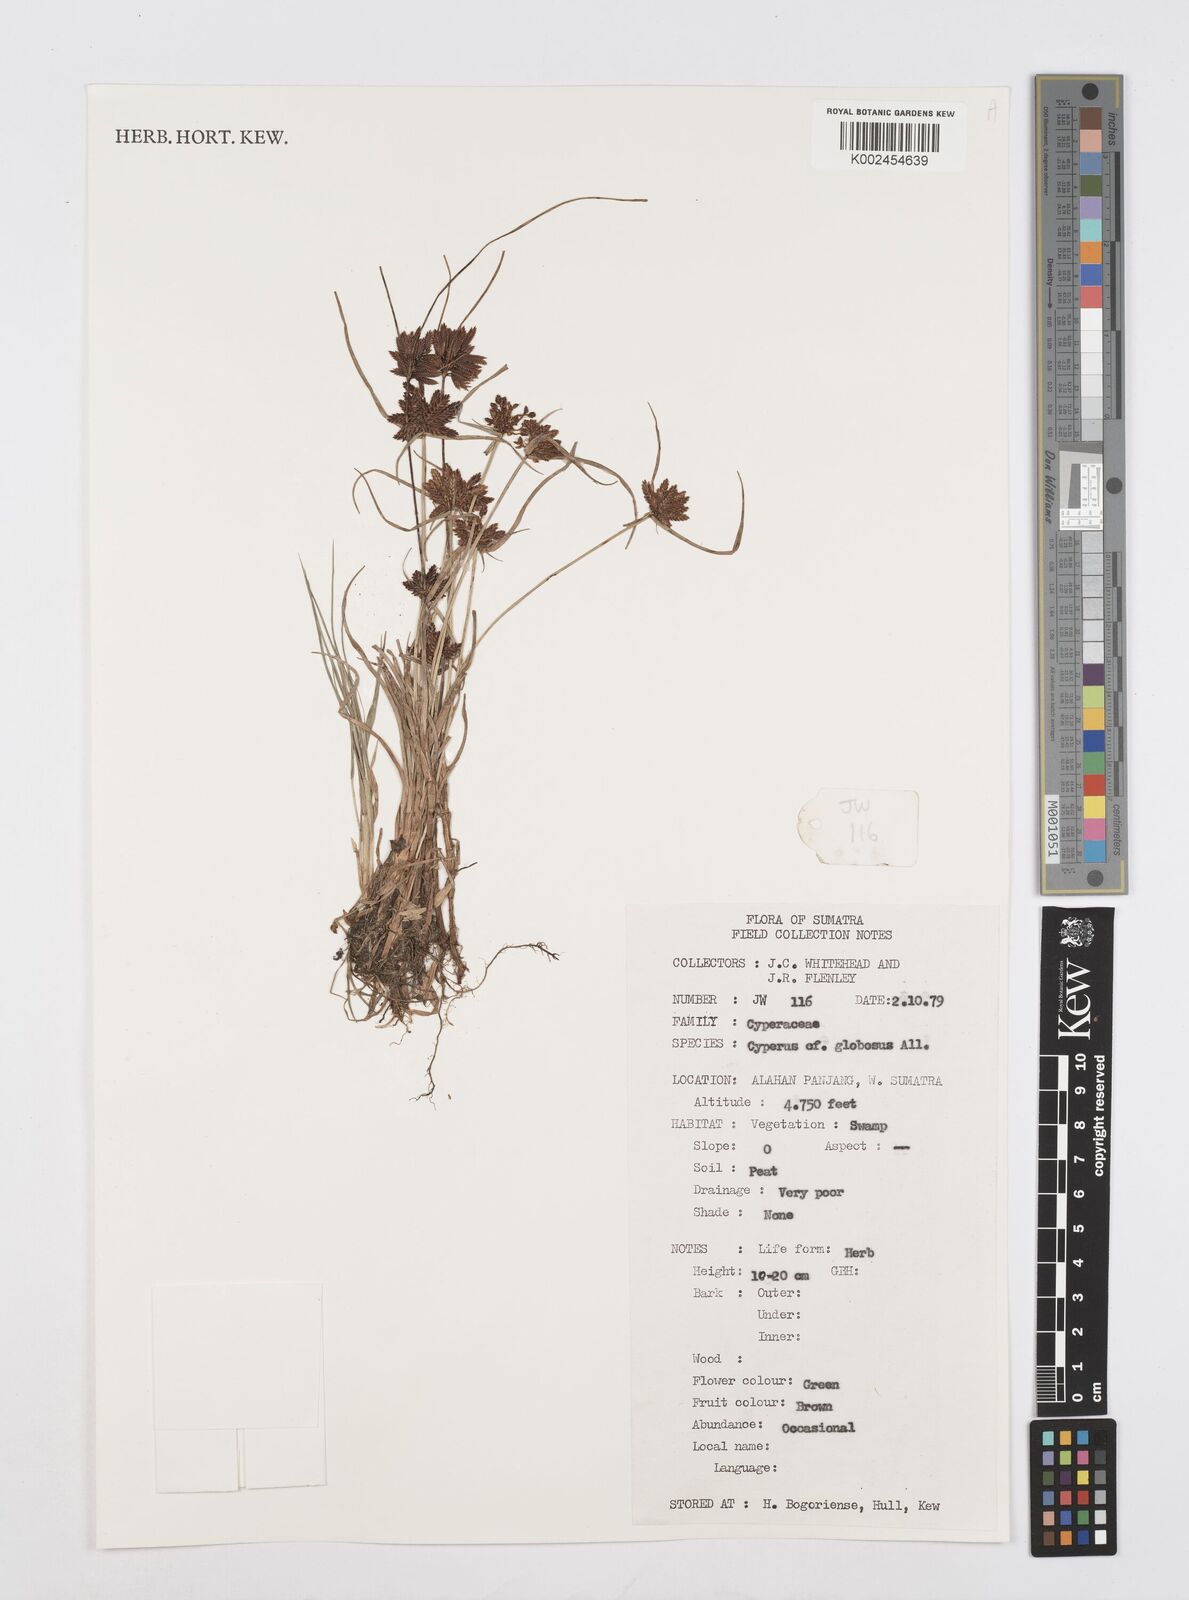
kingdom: Plantae
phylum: Tracheophyta
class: Liliopsida
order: Poales
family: Cyperaceae
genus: Cyperus
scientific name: Cyperus flavidus
